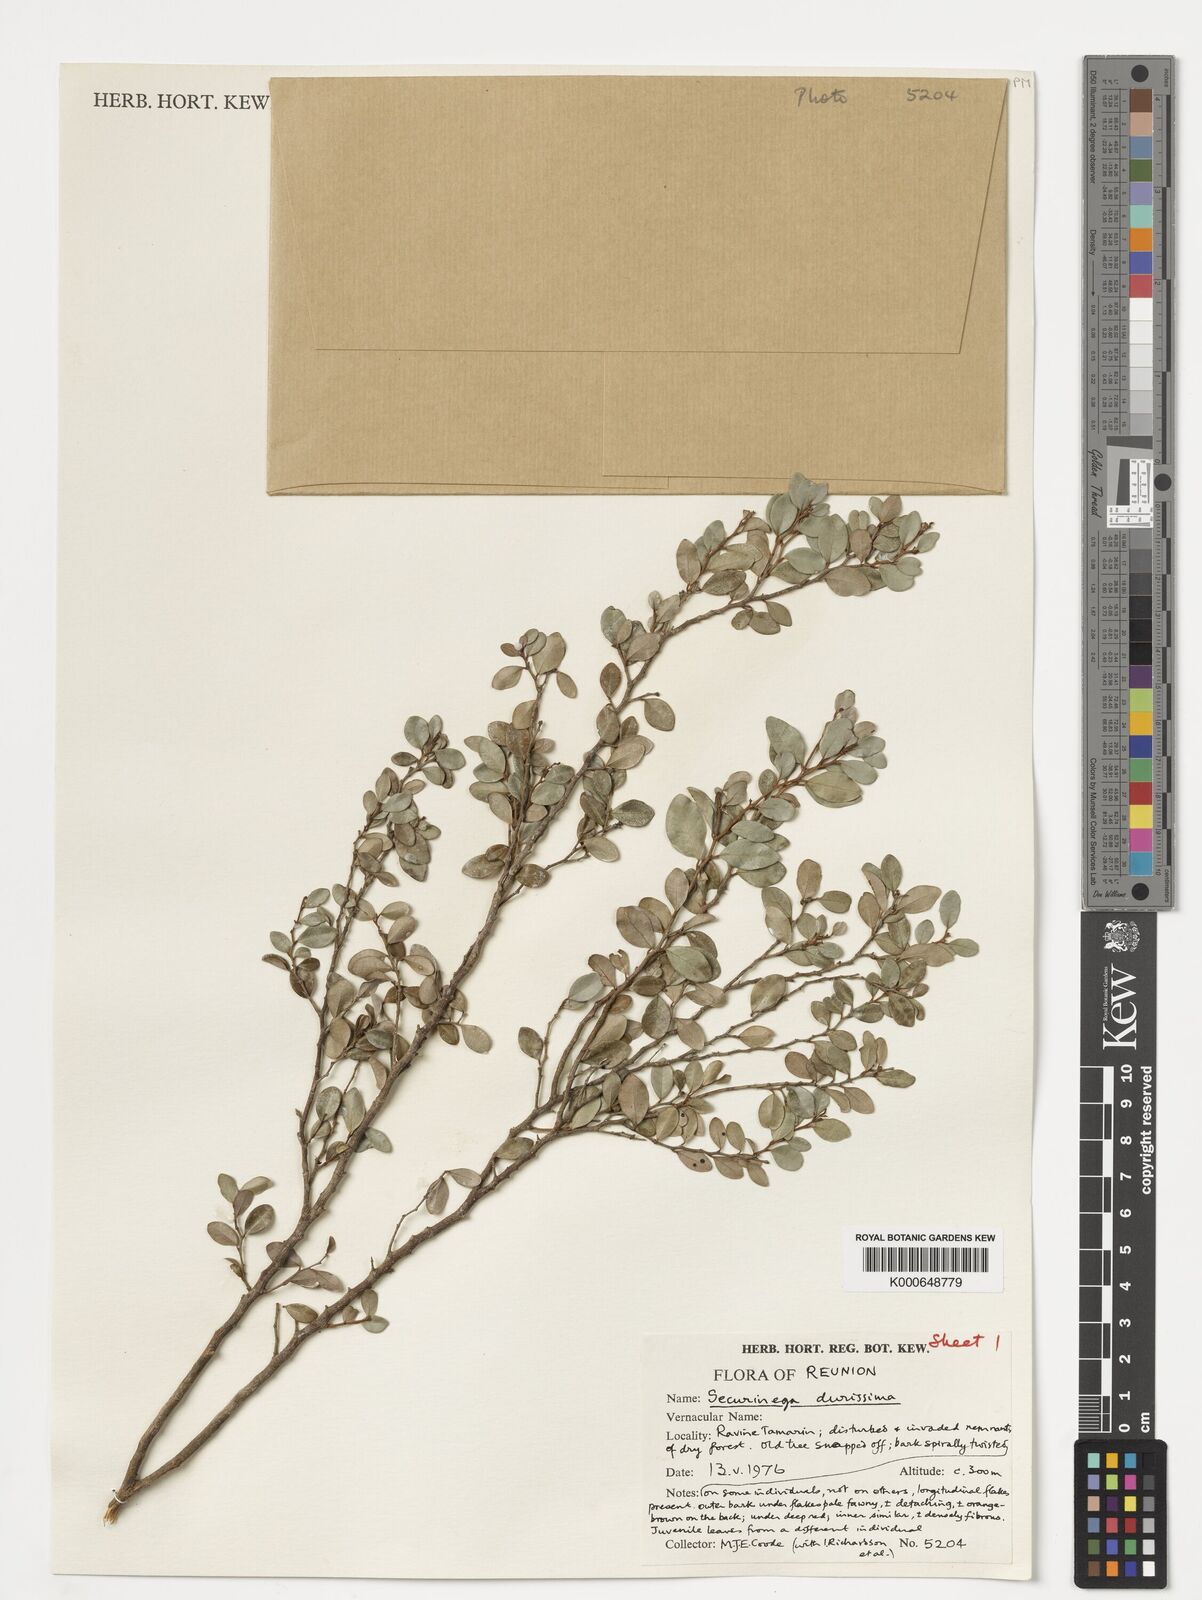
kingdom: Plantae
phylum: Tracheophyta
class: Magnoliopsida
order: Malpighiales
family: Phyllanthaceae
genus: Securinega
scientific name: Securinega durissima
